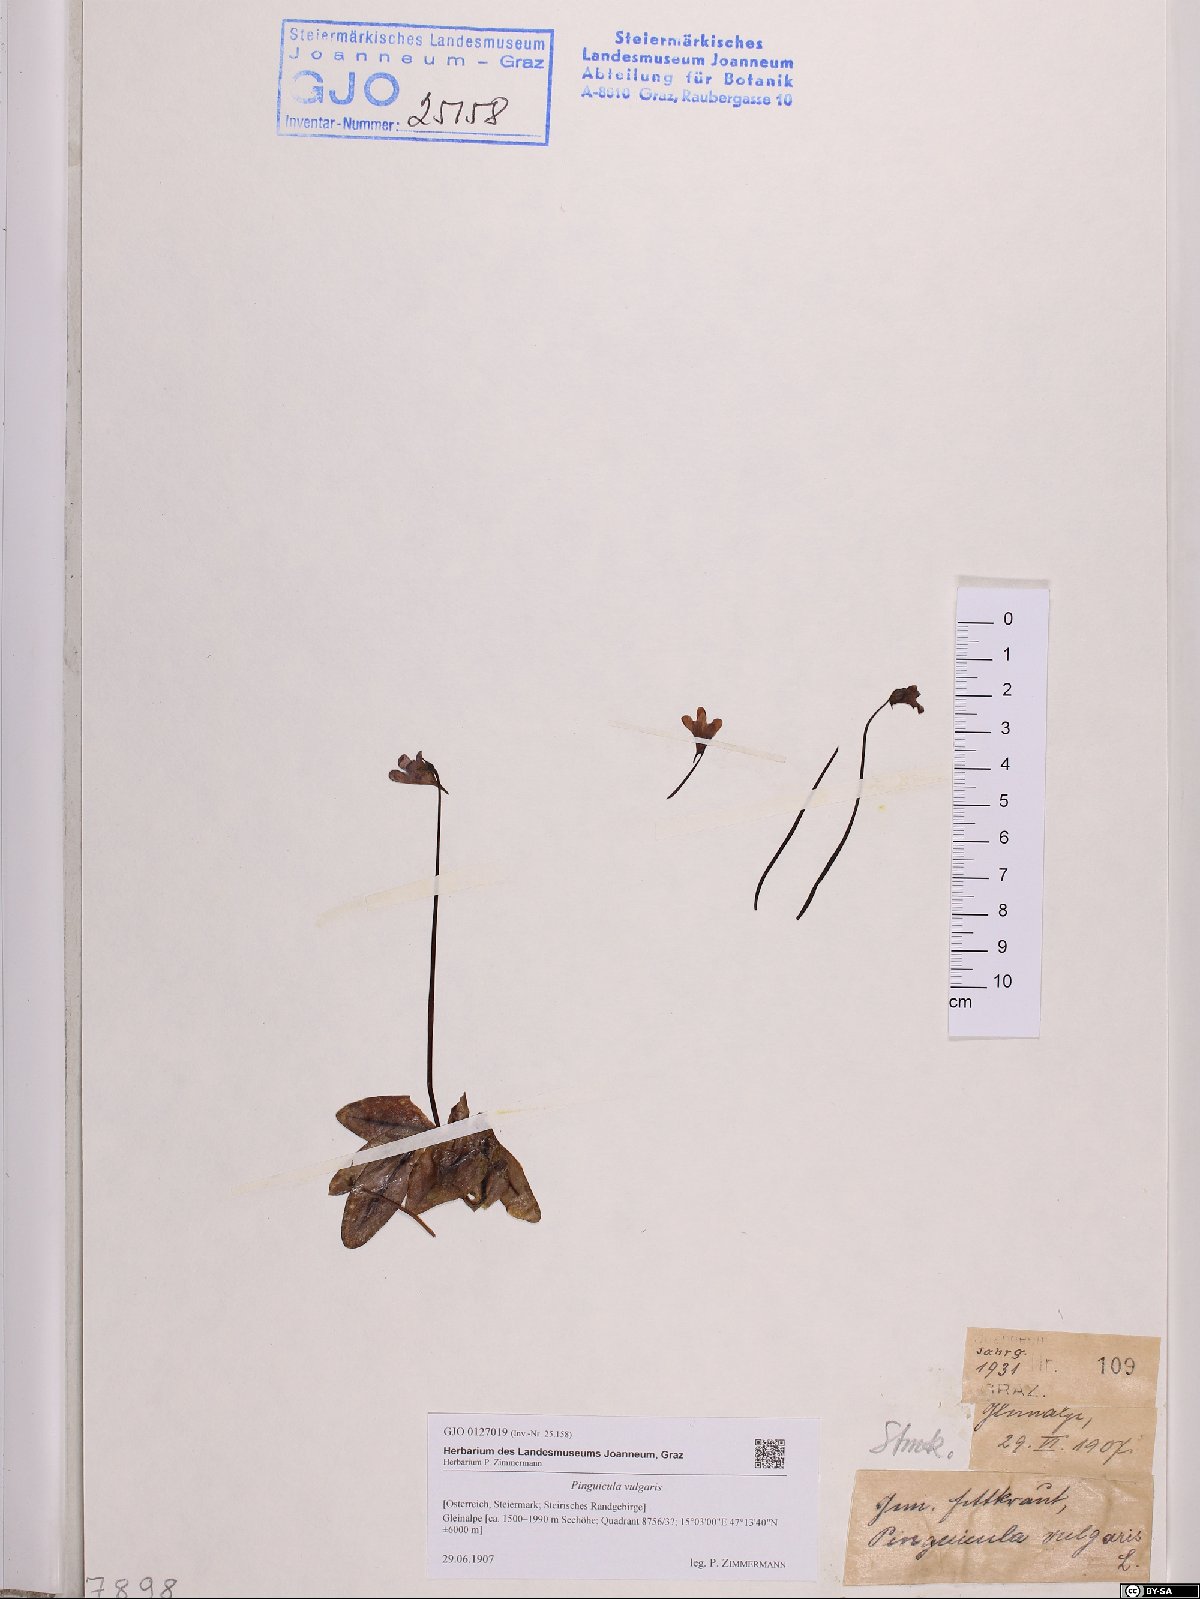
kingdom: Plantae
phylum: Tracheophyta
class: Magnoliopsida
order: Lamiales
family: Lentibulariaceae
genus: Pinguicula
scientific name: Pinguicula vulgaris
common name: Common butterwort
